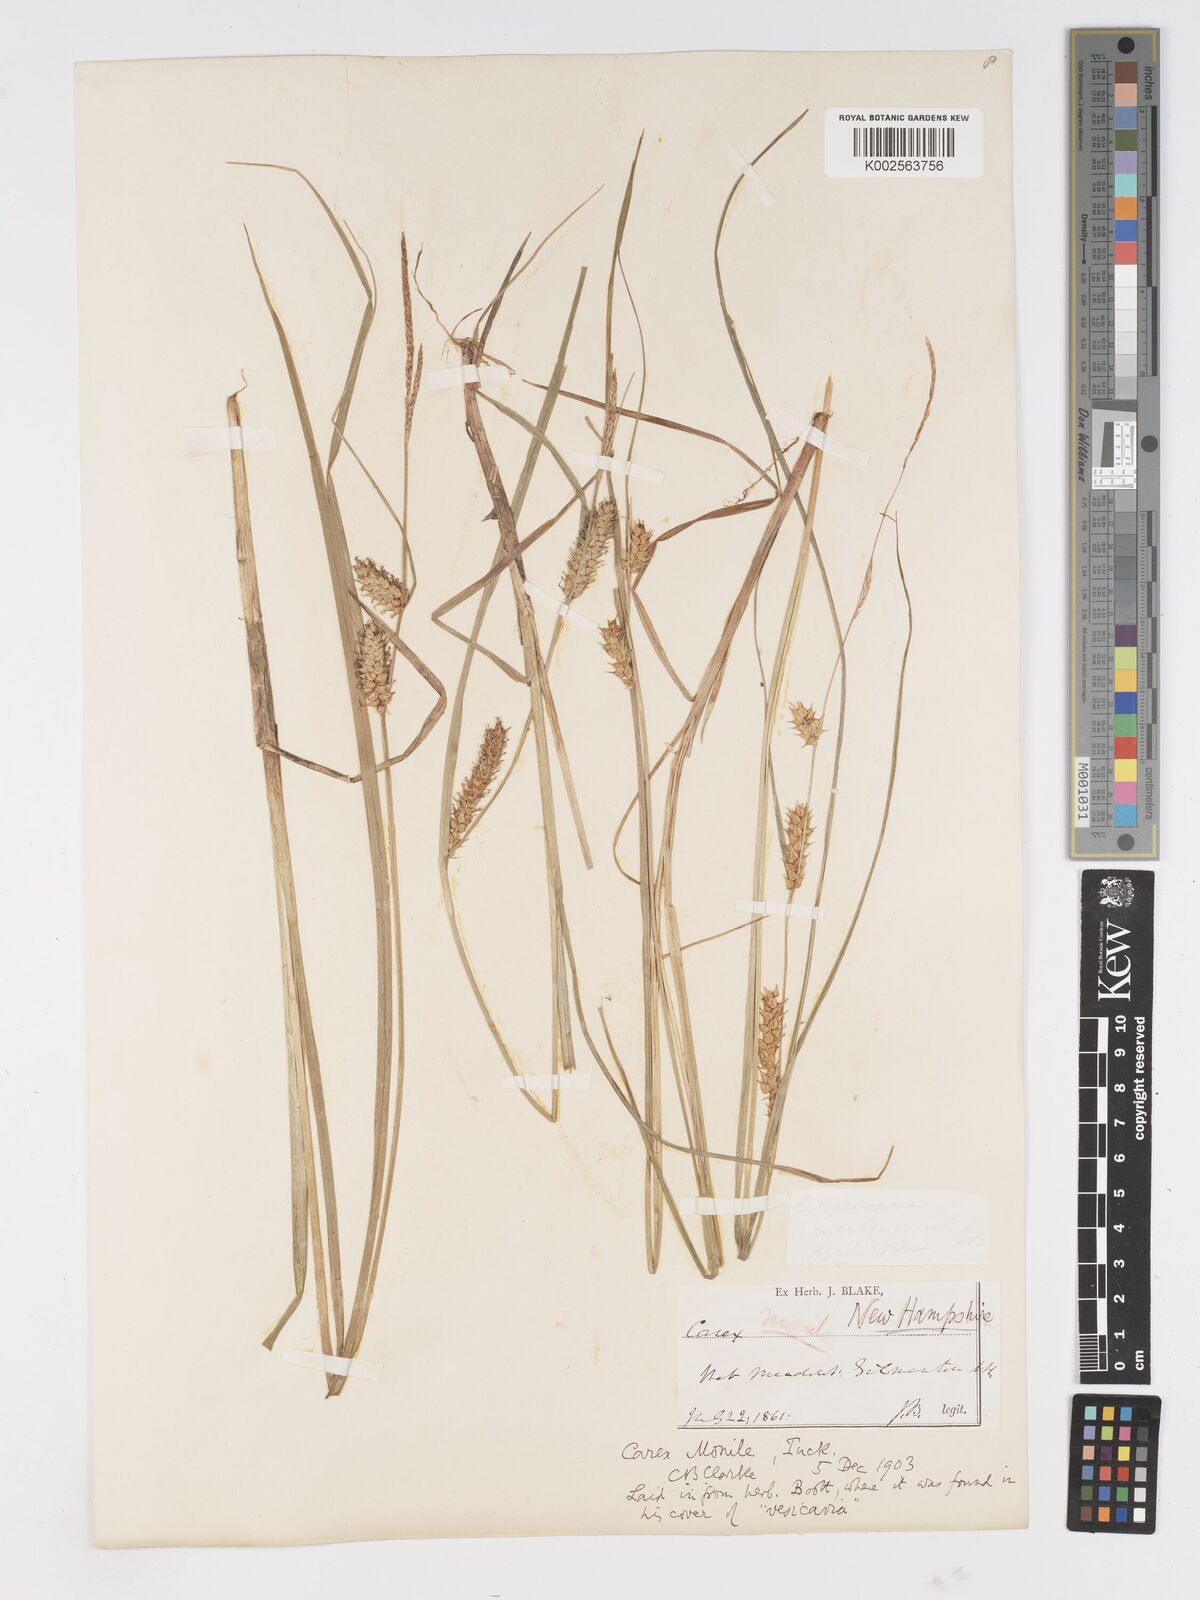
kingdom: Plantae
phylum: Tracheophyta
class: Liliopsida
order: Poales
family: Cyperaceae
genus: Carex
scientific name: Carex vesicaria
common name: Bladder-sedge
